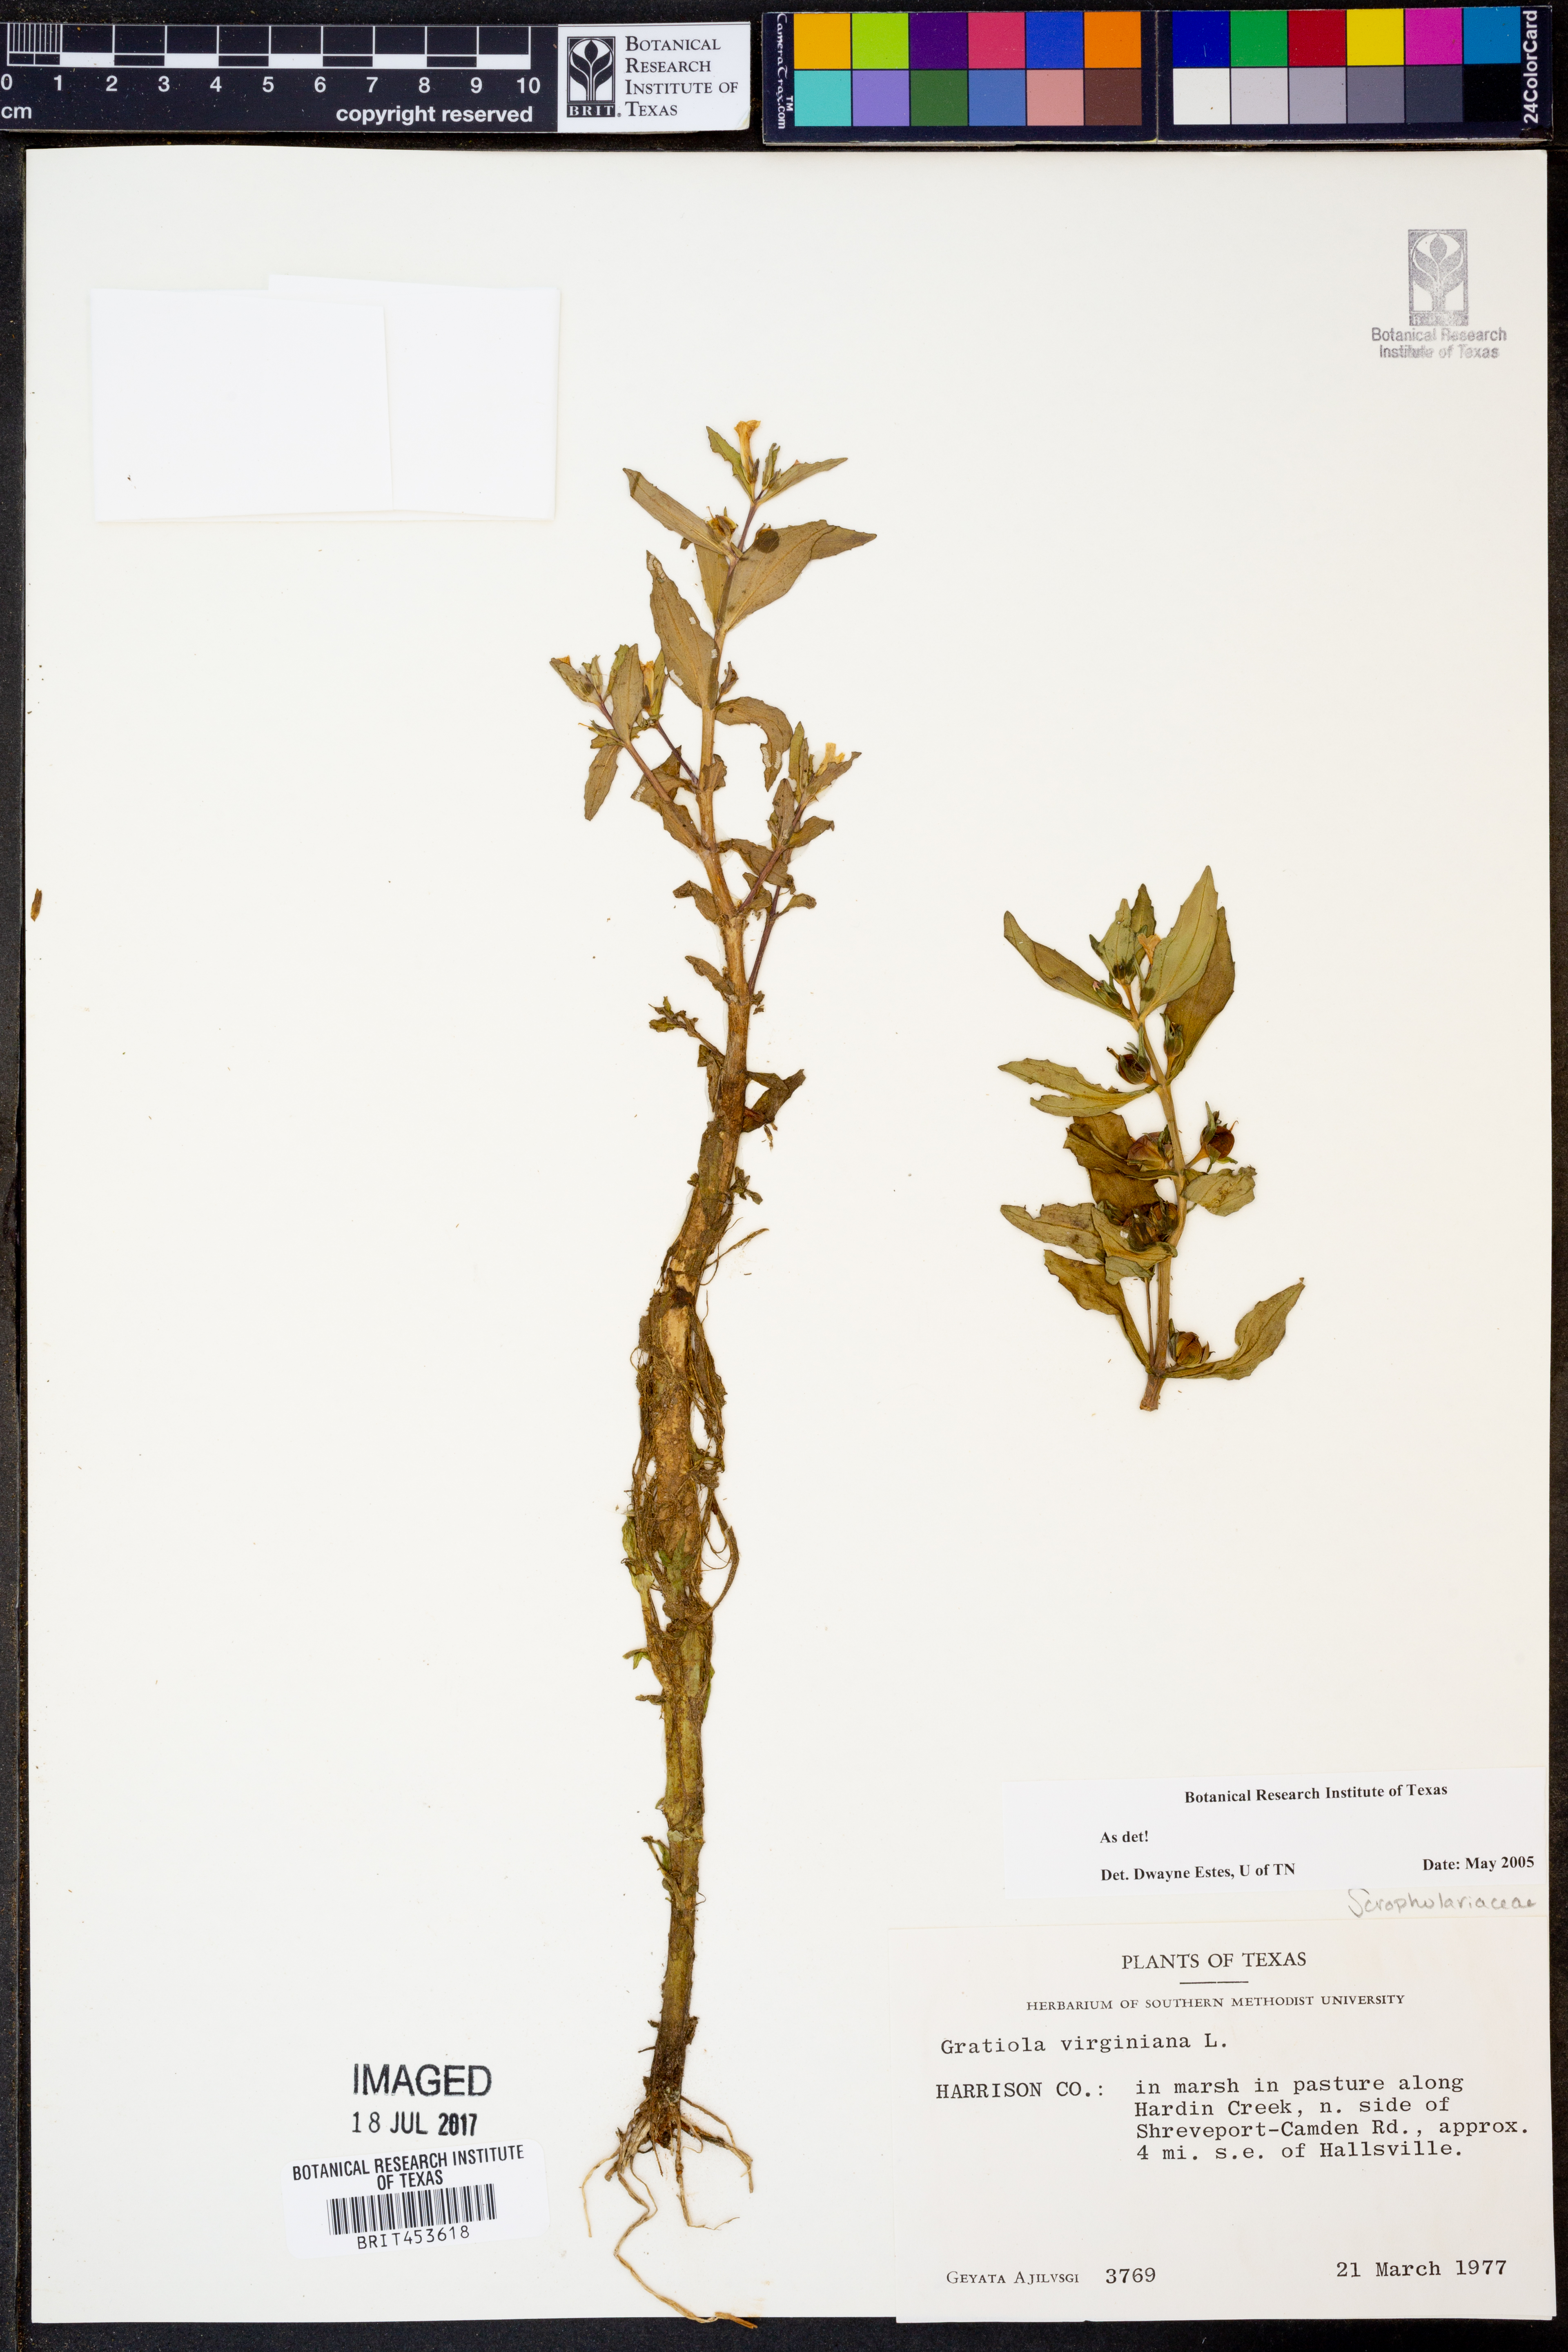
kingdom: Plantae
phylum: Tracheophyta
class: Magnoliopsida
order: Lamiales
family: Plantaginaceae
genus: Gratiola
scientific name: Gratiola virginiana
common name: Roundfruit hedgehyssop
